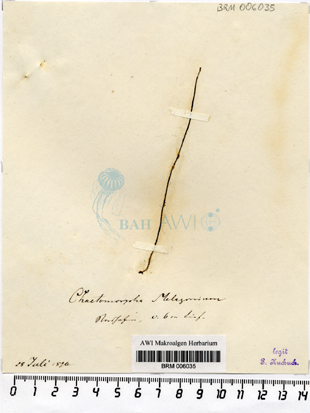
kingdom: Plantae
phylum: Chlorophyta
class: Ulvophyceae
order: Cladophorales
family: Cladophoraceae
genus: Chaetomorpha
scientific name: Chaetomorpha melagonium
